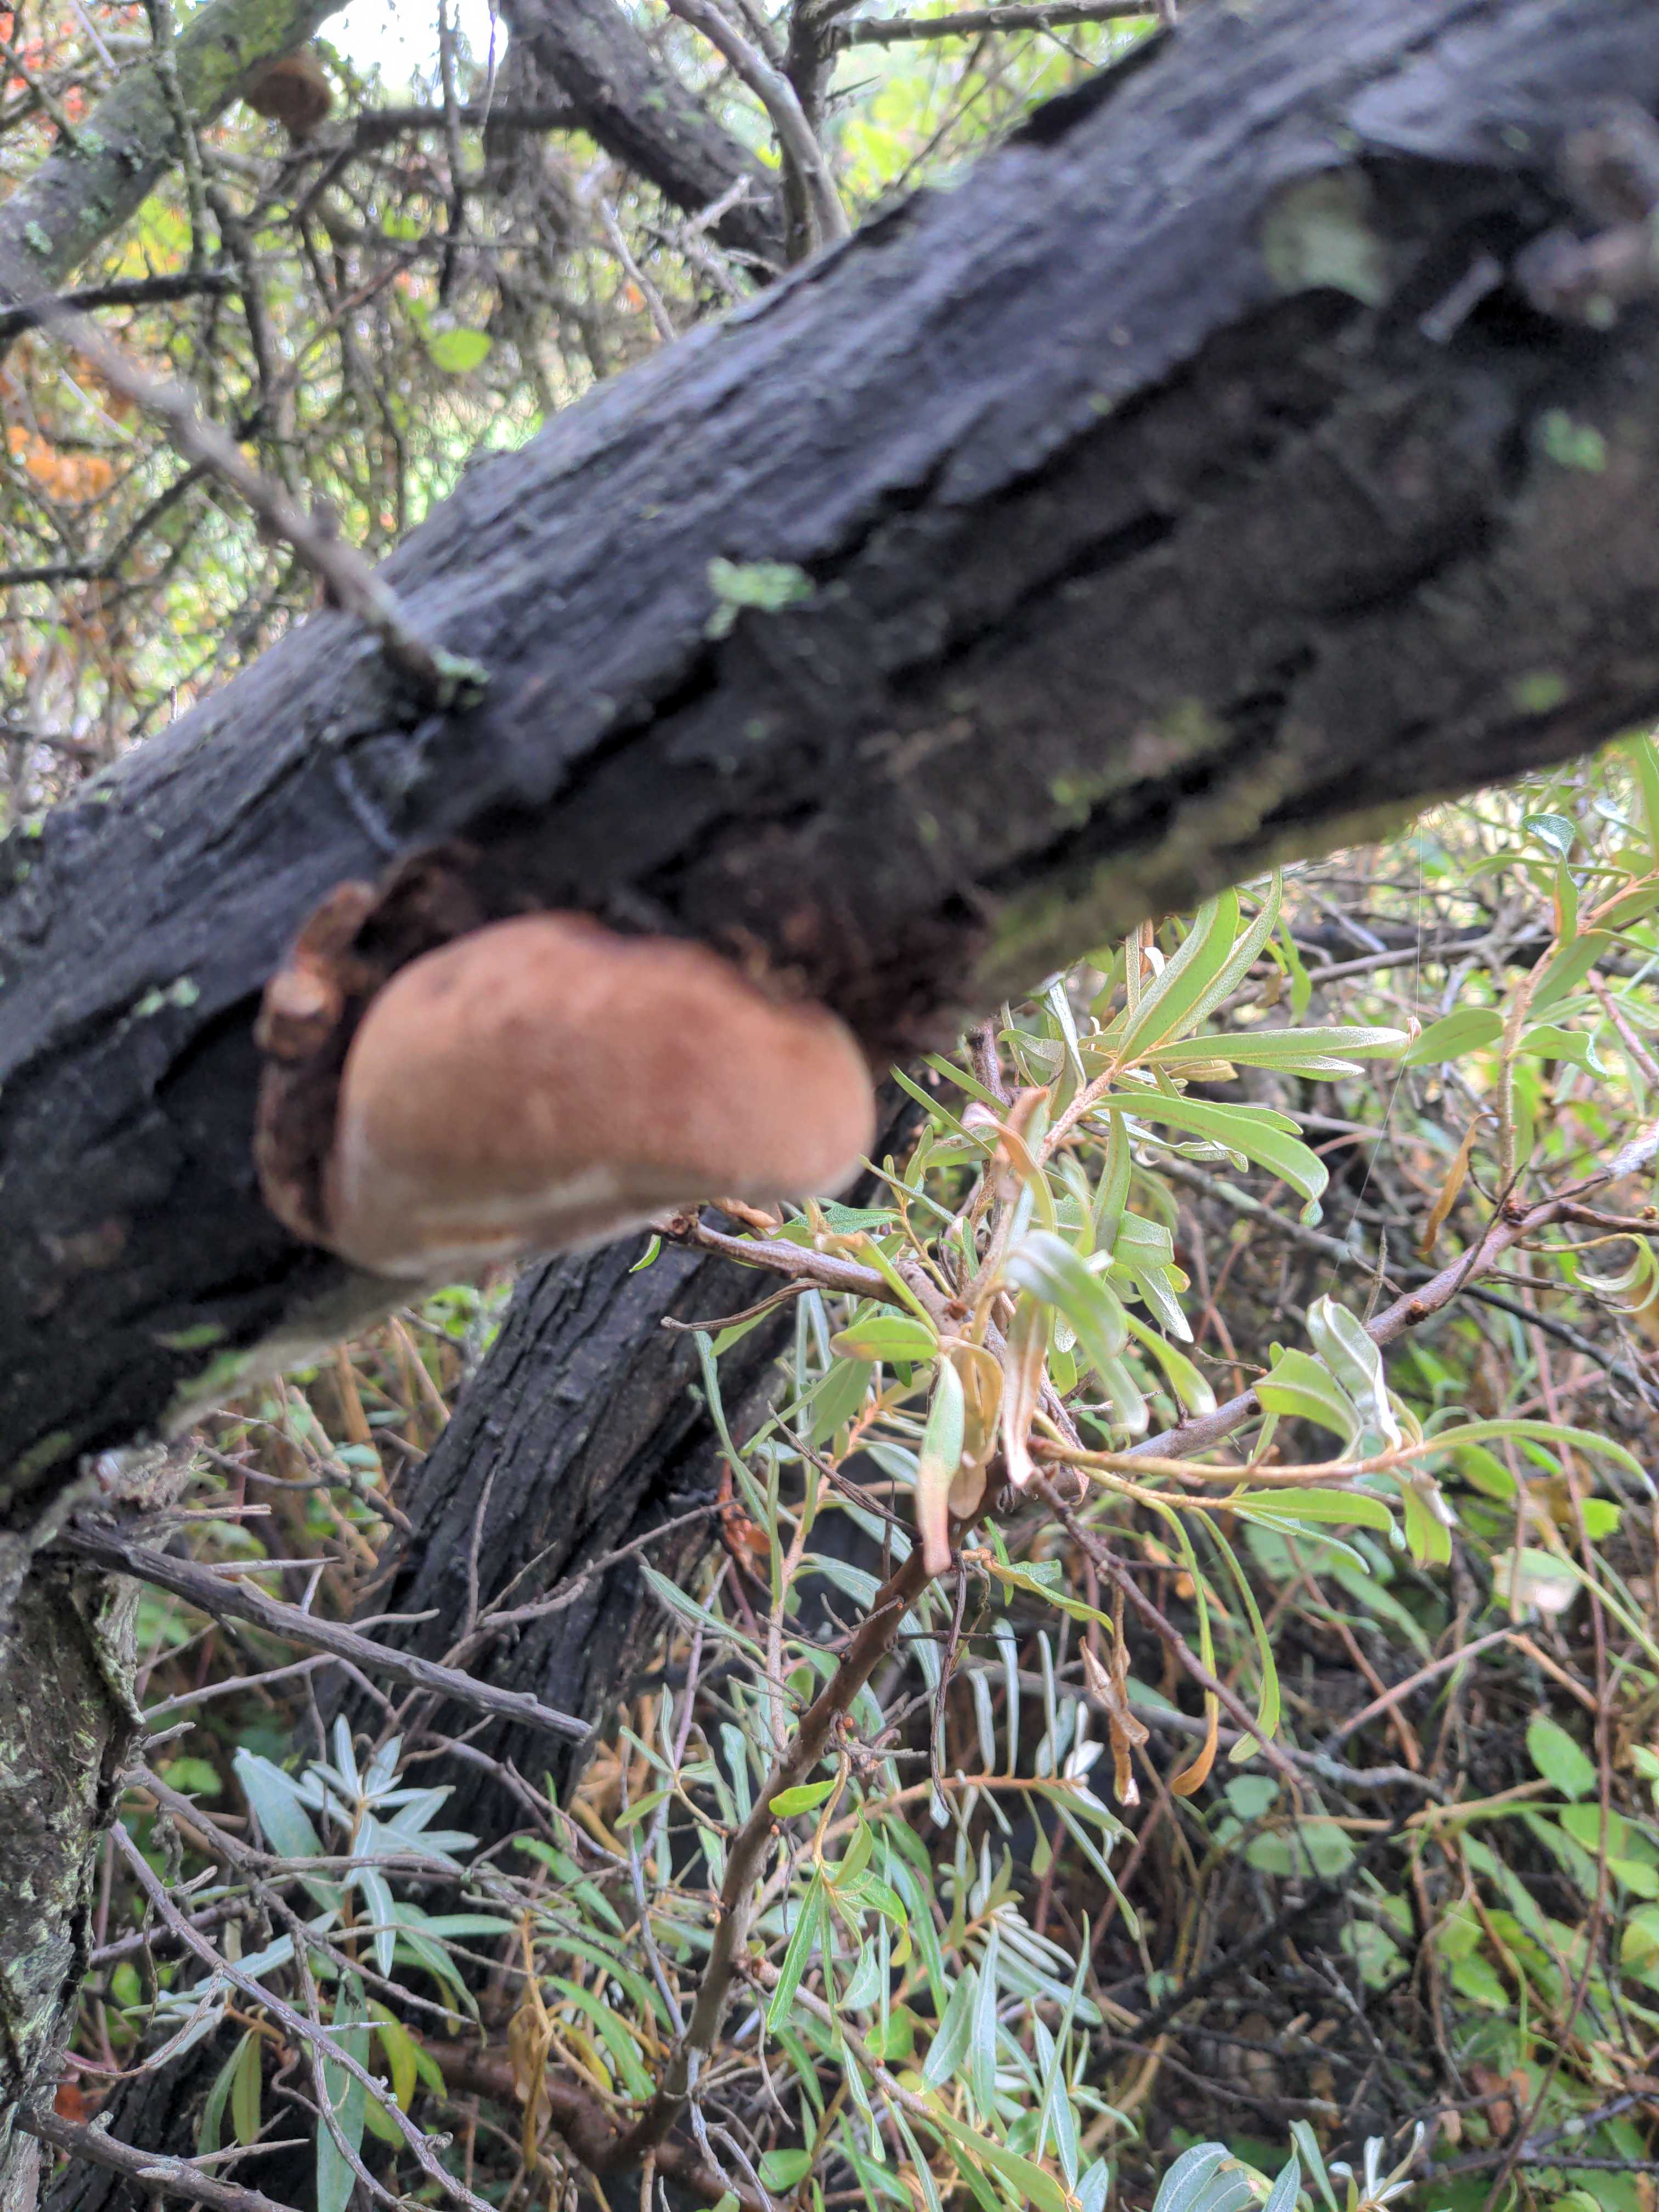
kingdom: Fungi
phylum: Basidiomycota
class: Agaricomycetes
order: Hymenochaetales
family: Hymenochaetaceae
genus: Fomitiporia
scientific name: Fomitiporia hippophaeicola
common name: havtorn-ildporesvamp
